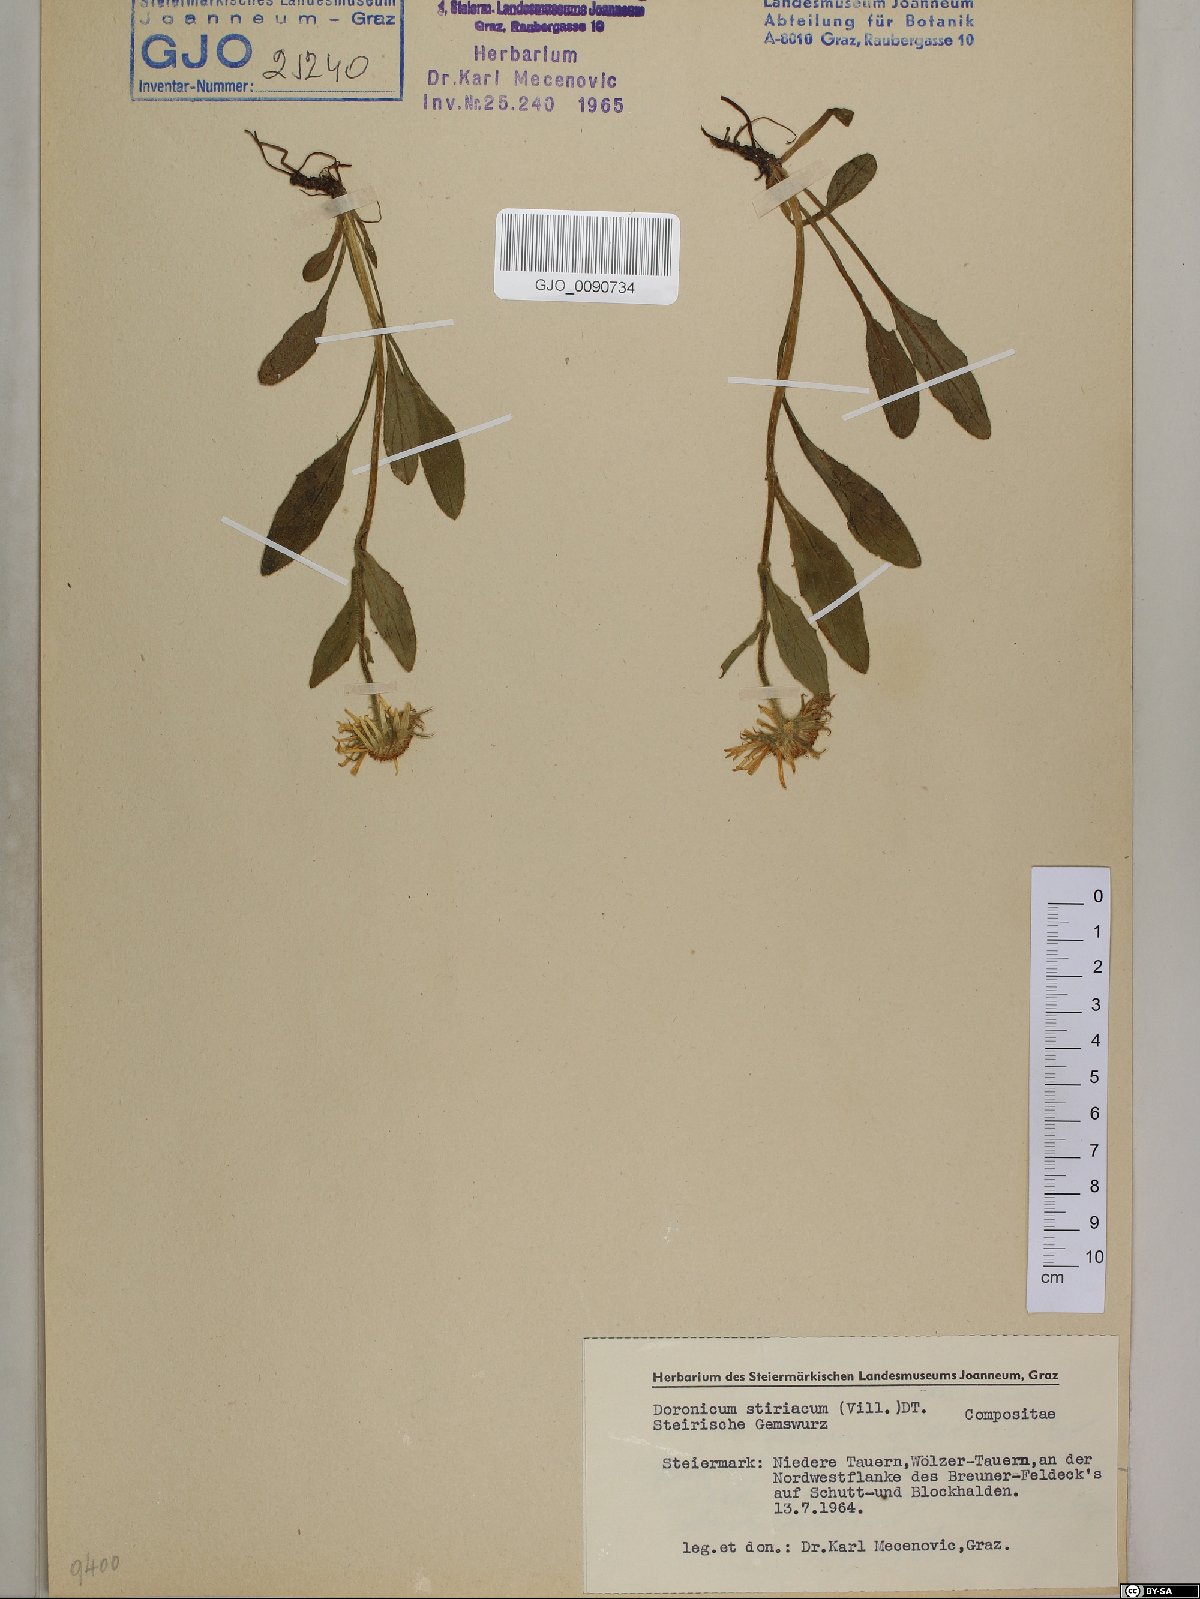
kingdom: Plantae
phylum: Tracheophyta
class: Magnoliopsida
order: Asterales
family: Asteraceae
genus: Doronicum
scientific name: Doronicum clusii
